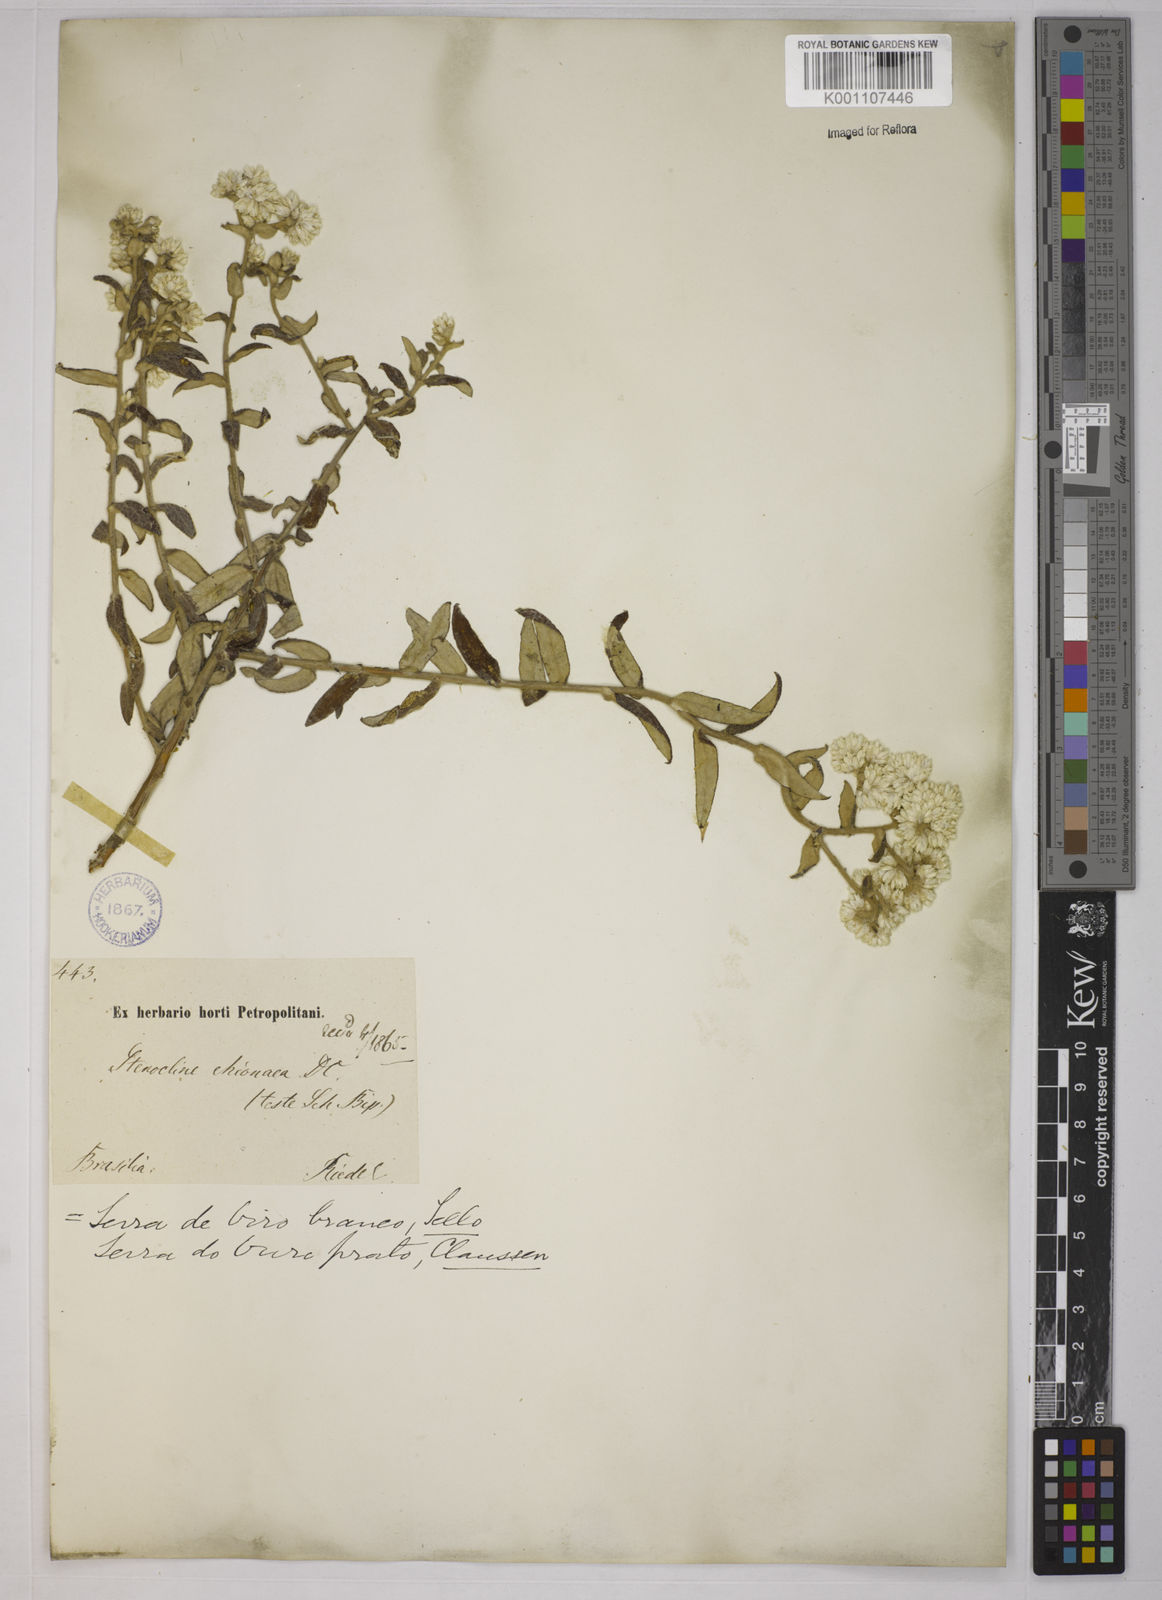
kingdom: Plantae
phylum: Tracheophyta
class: Magnoliopsida
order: Asterales
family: Asteraceae
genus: Achyrocline
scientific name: Achyrocline chionaea
